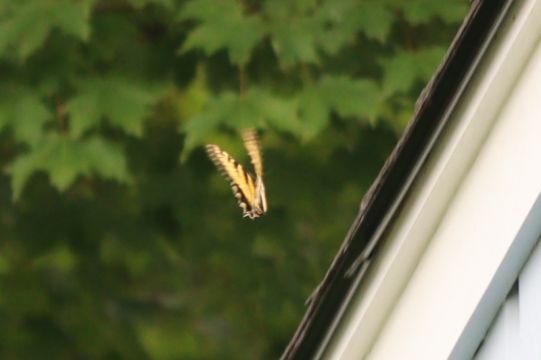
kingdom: Animalia
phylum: Arthropoda
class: Insecta
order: Lepidoptera
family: Papilionidae
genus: Pterourus
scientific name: Pterourus canadensis
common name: Canadian Tiger Swallowtail
